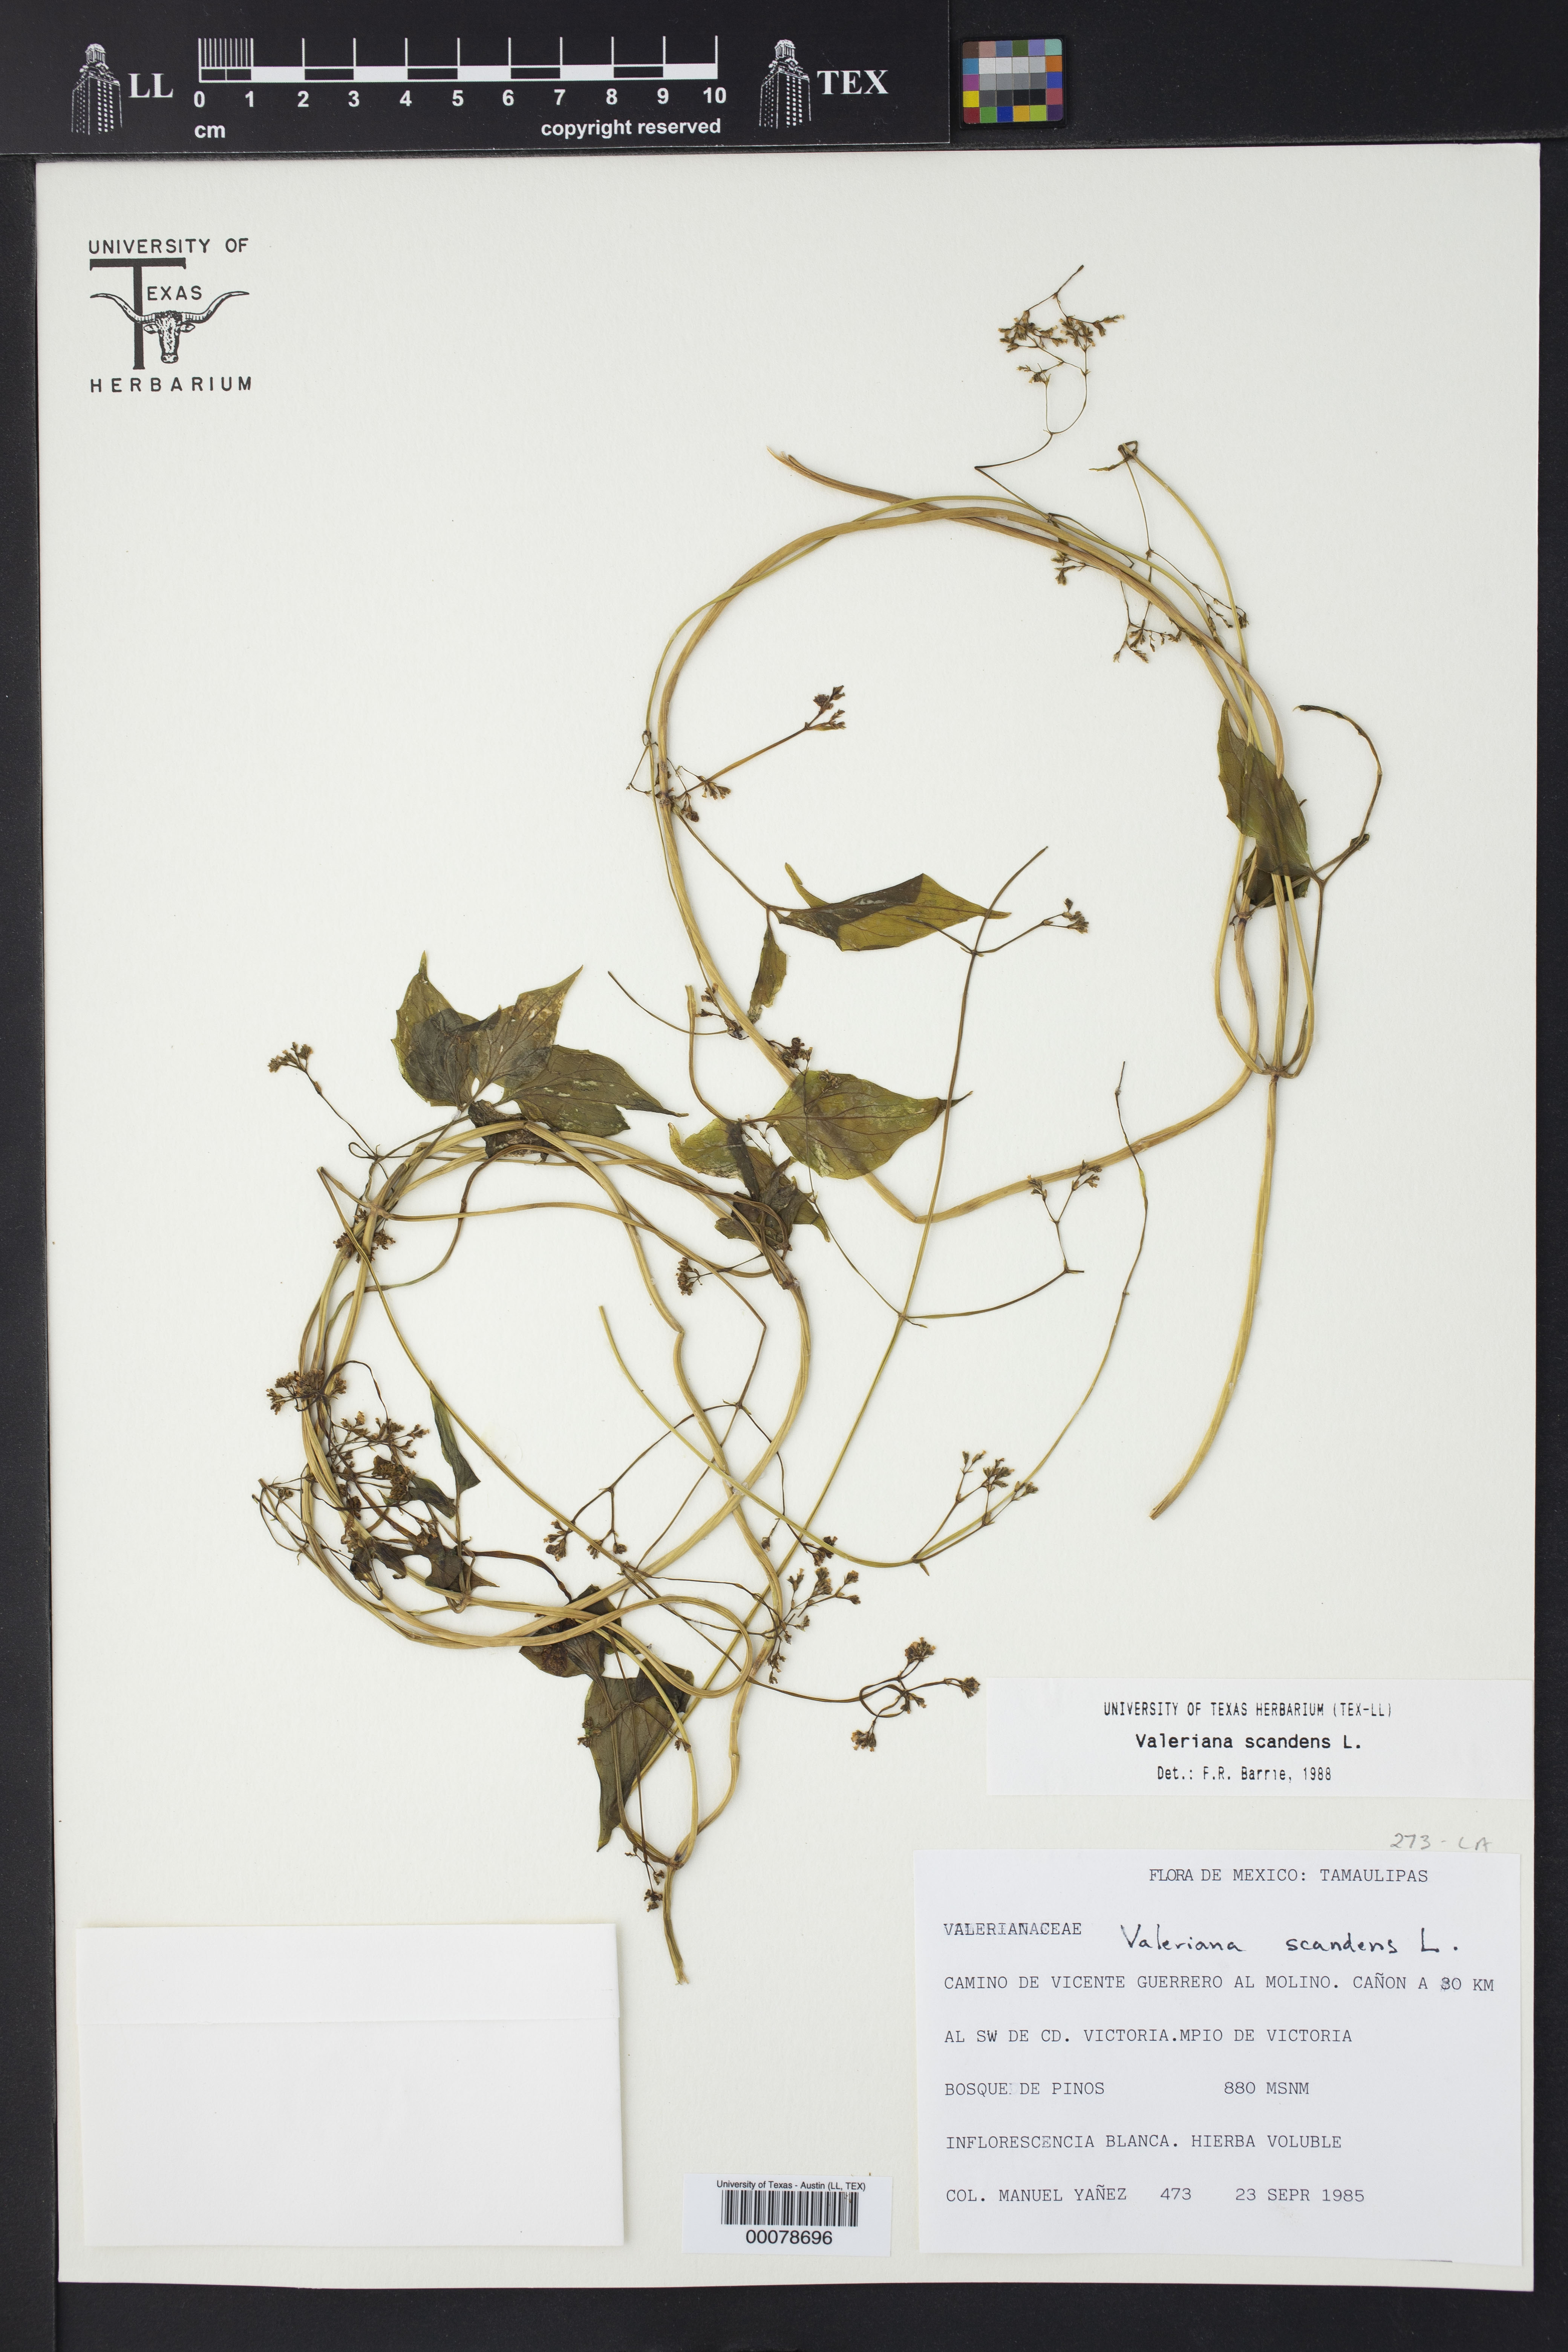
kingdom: Plantae
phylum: Tracheophyta
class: Magnoliopsida
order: Dipsacales
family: Caprifoliaceae
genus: Valeriana
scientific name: Valeriana scandens
